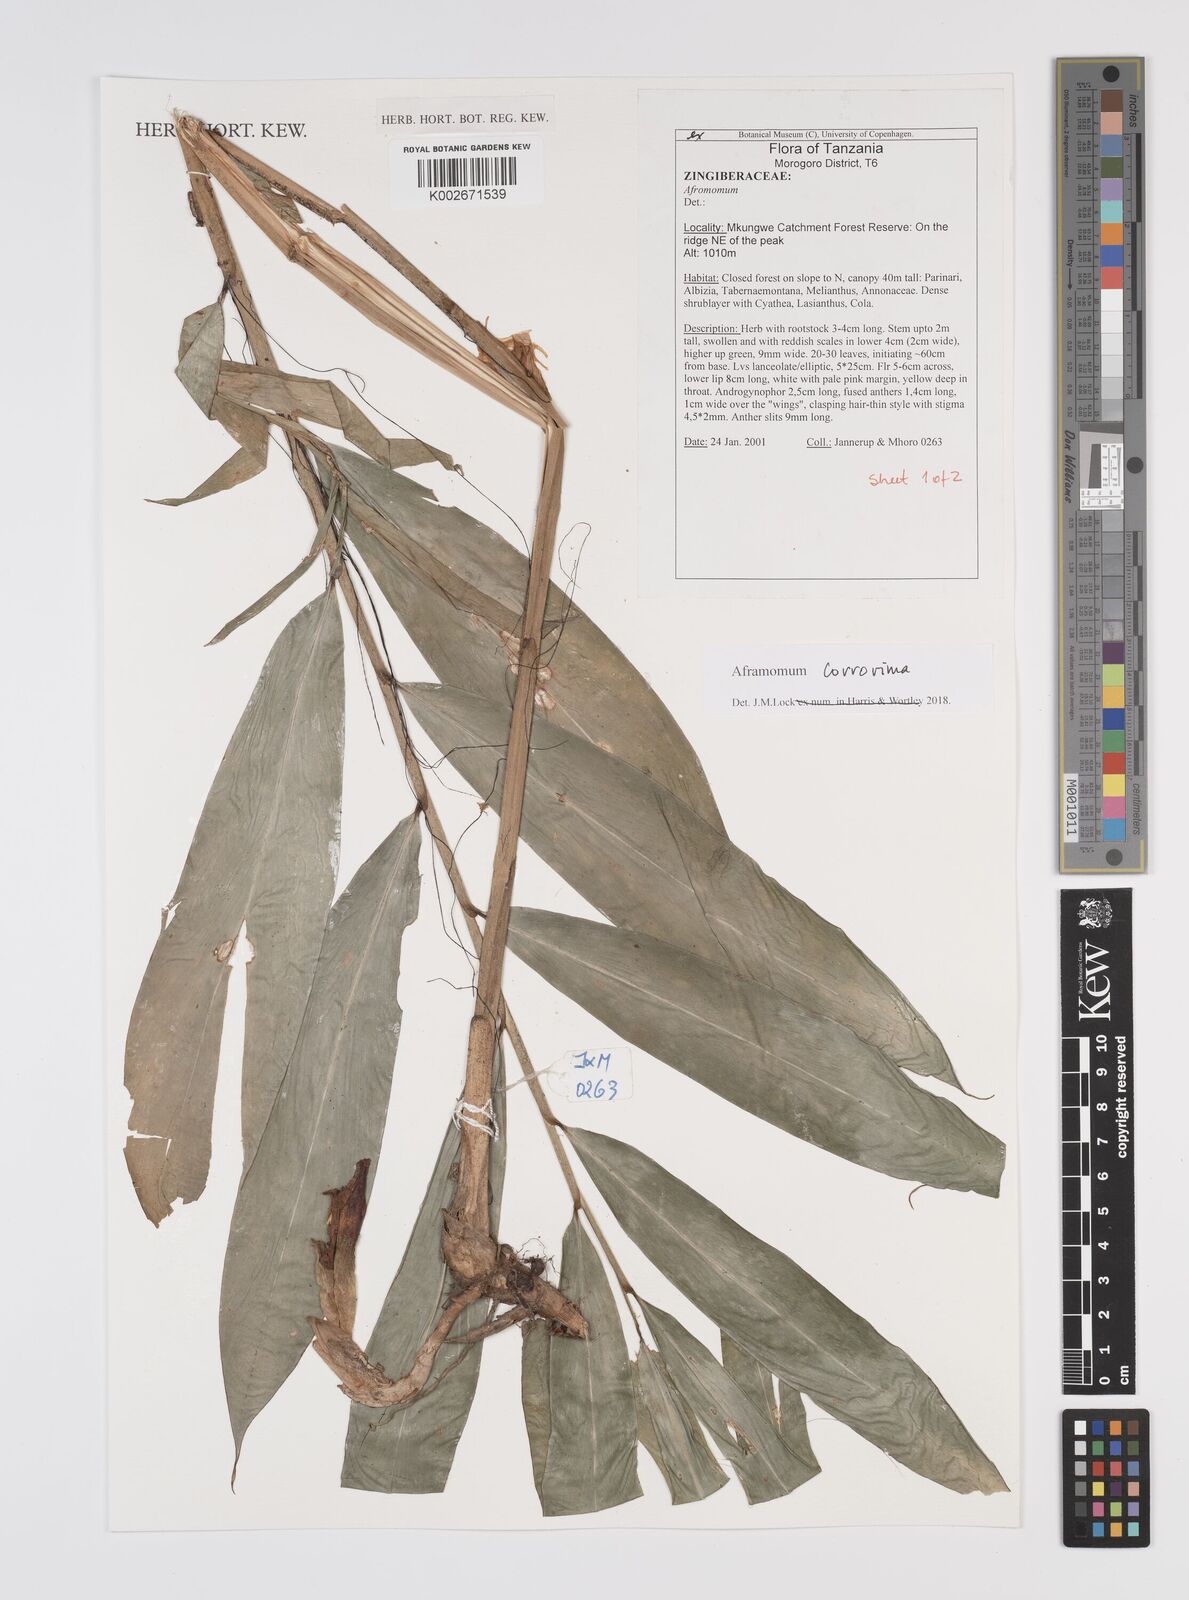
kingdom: Plantae
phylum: Tracheophyta
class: Liliopsida
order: Zingiberales
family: Zingiberaceae
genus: Aframomum
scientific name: Aframomum corrorima
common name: Ethiopian cardamom
